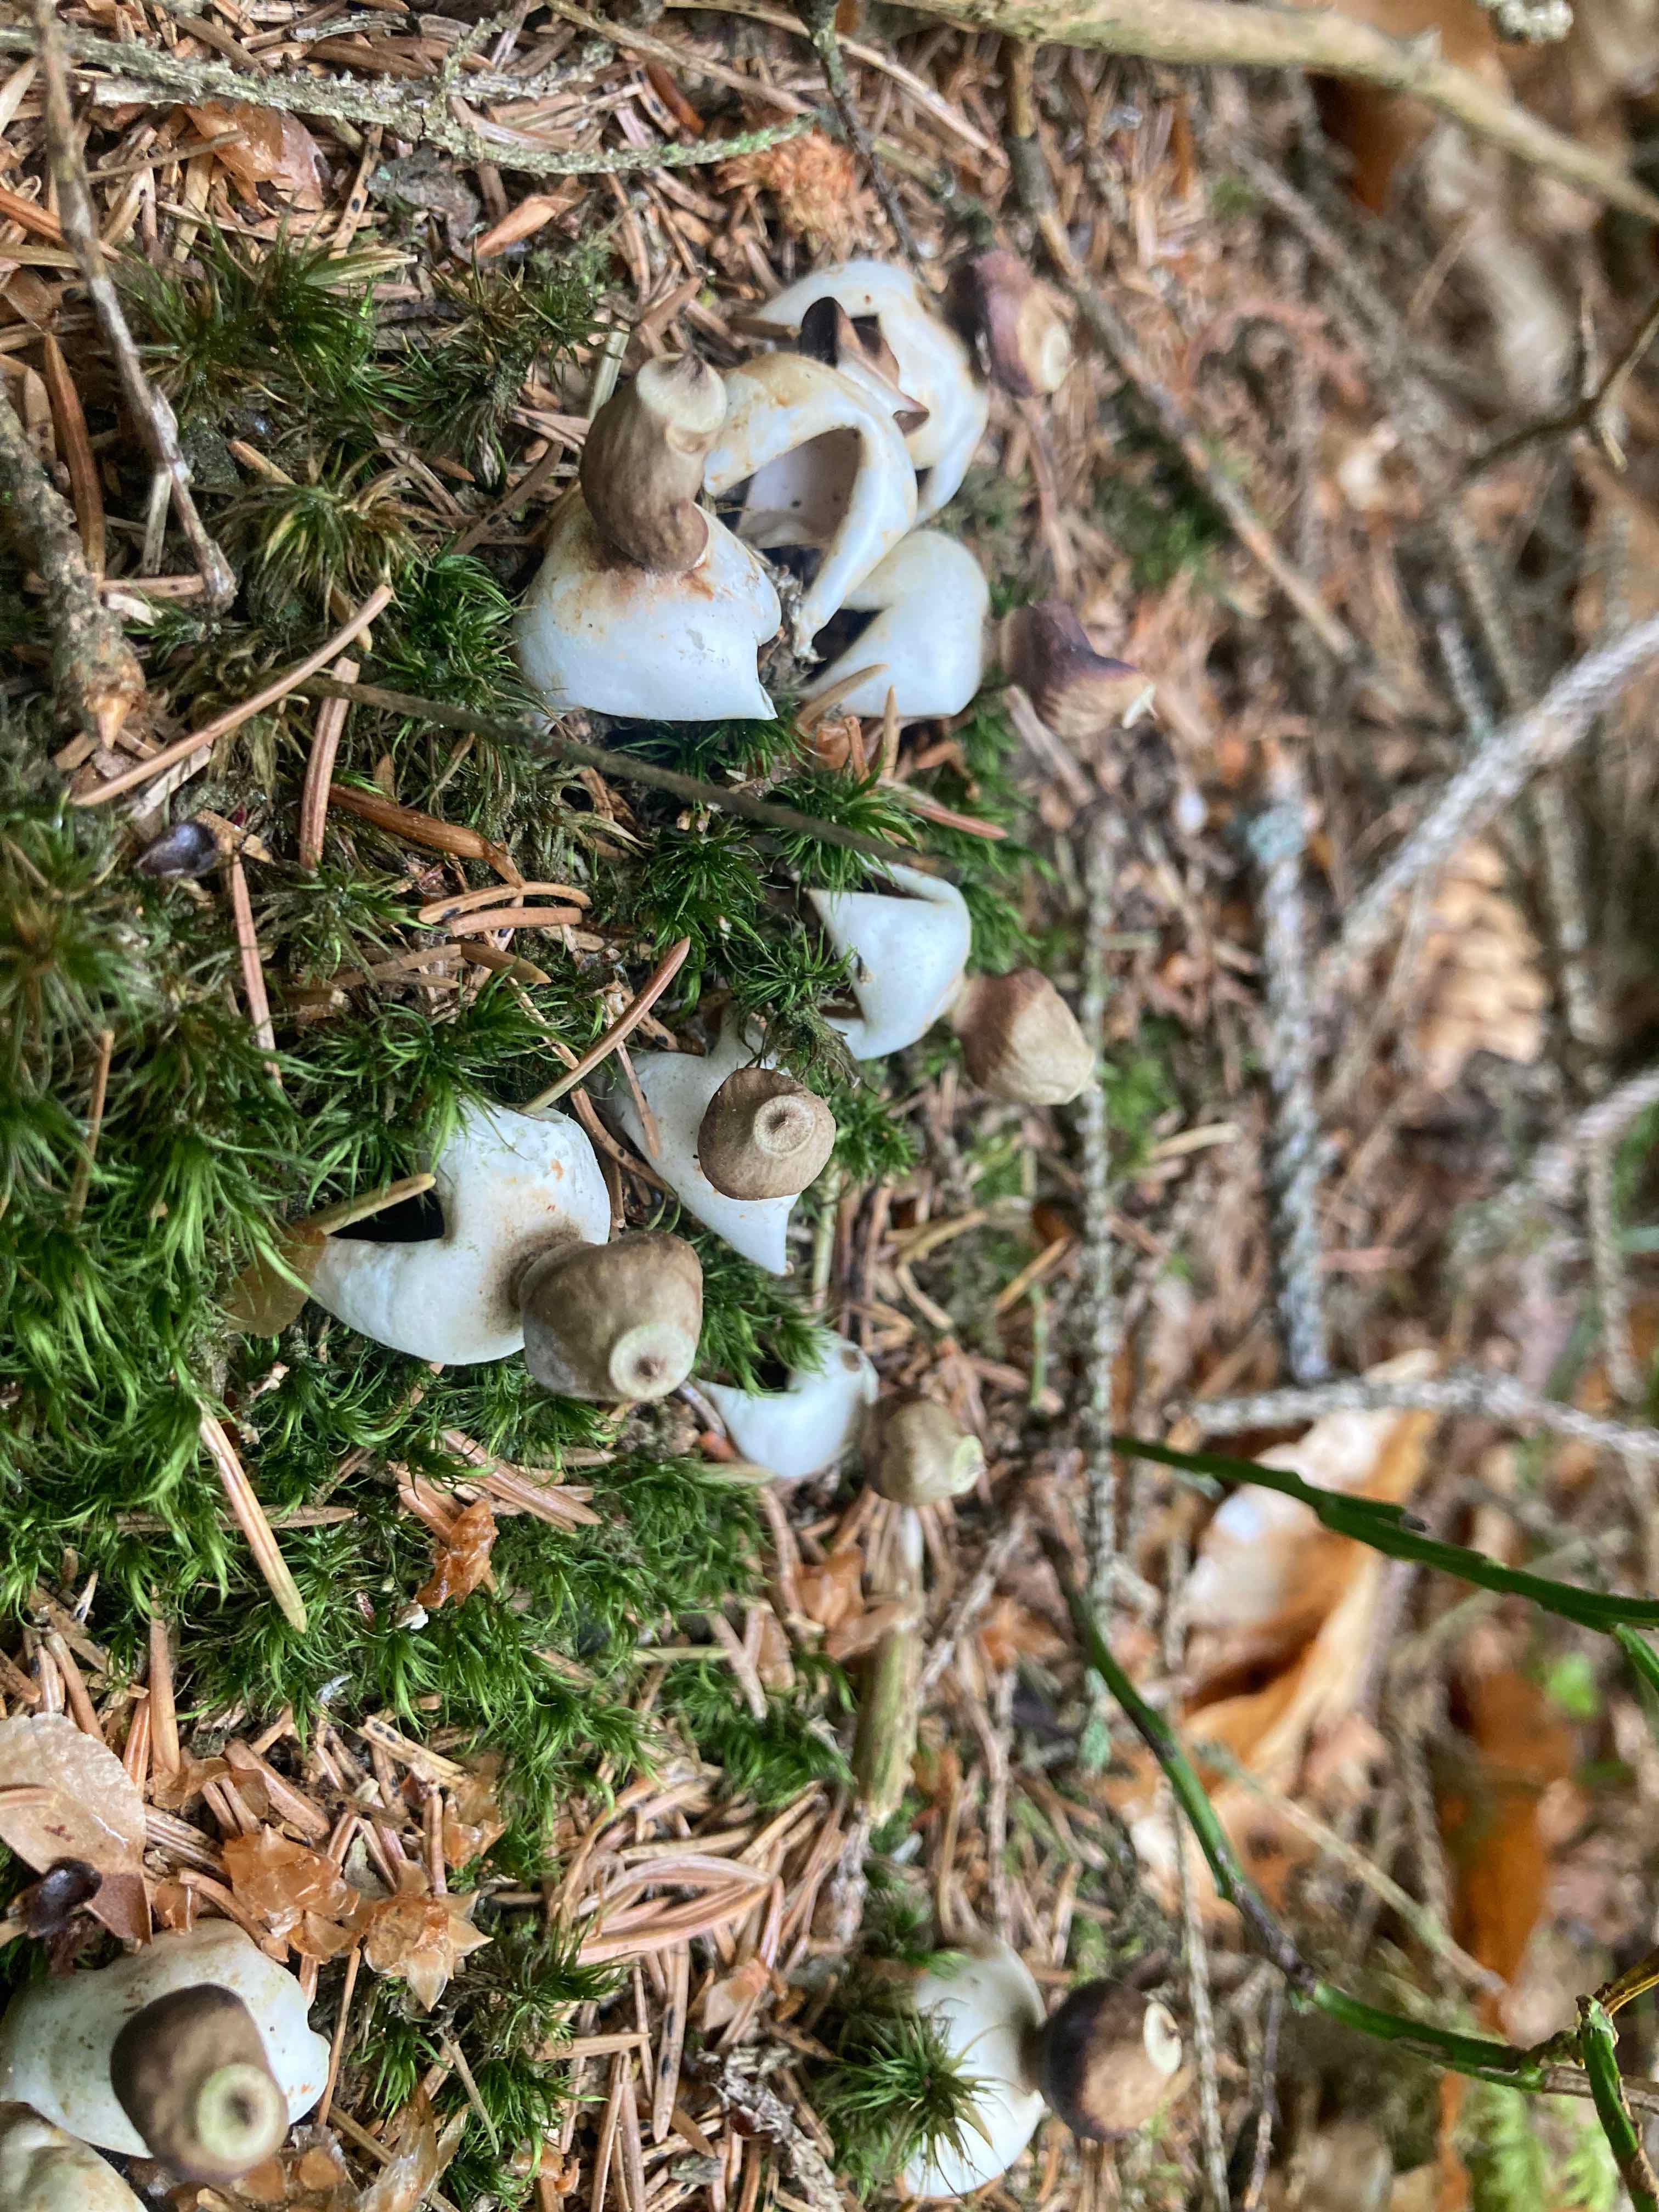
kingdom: Fungi
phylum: Basidiomycota
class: Agaricomycetes
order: Geastrales
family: Geastraceae
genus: Geastrum
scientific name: Geastrum quadrifidum
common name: firfliget stjernebold
